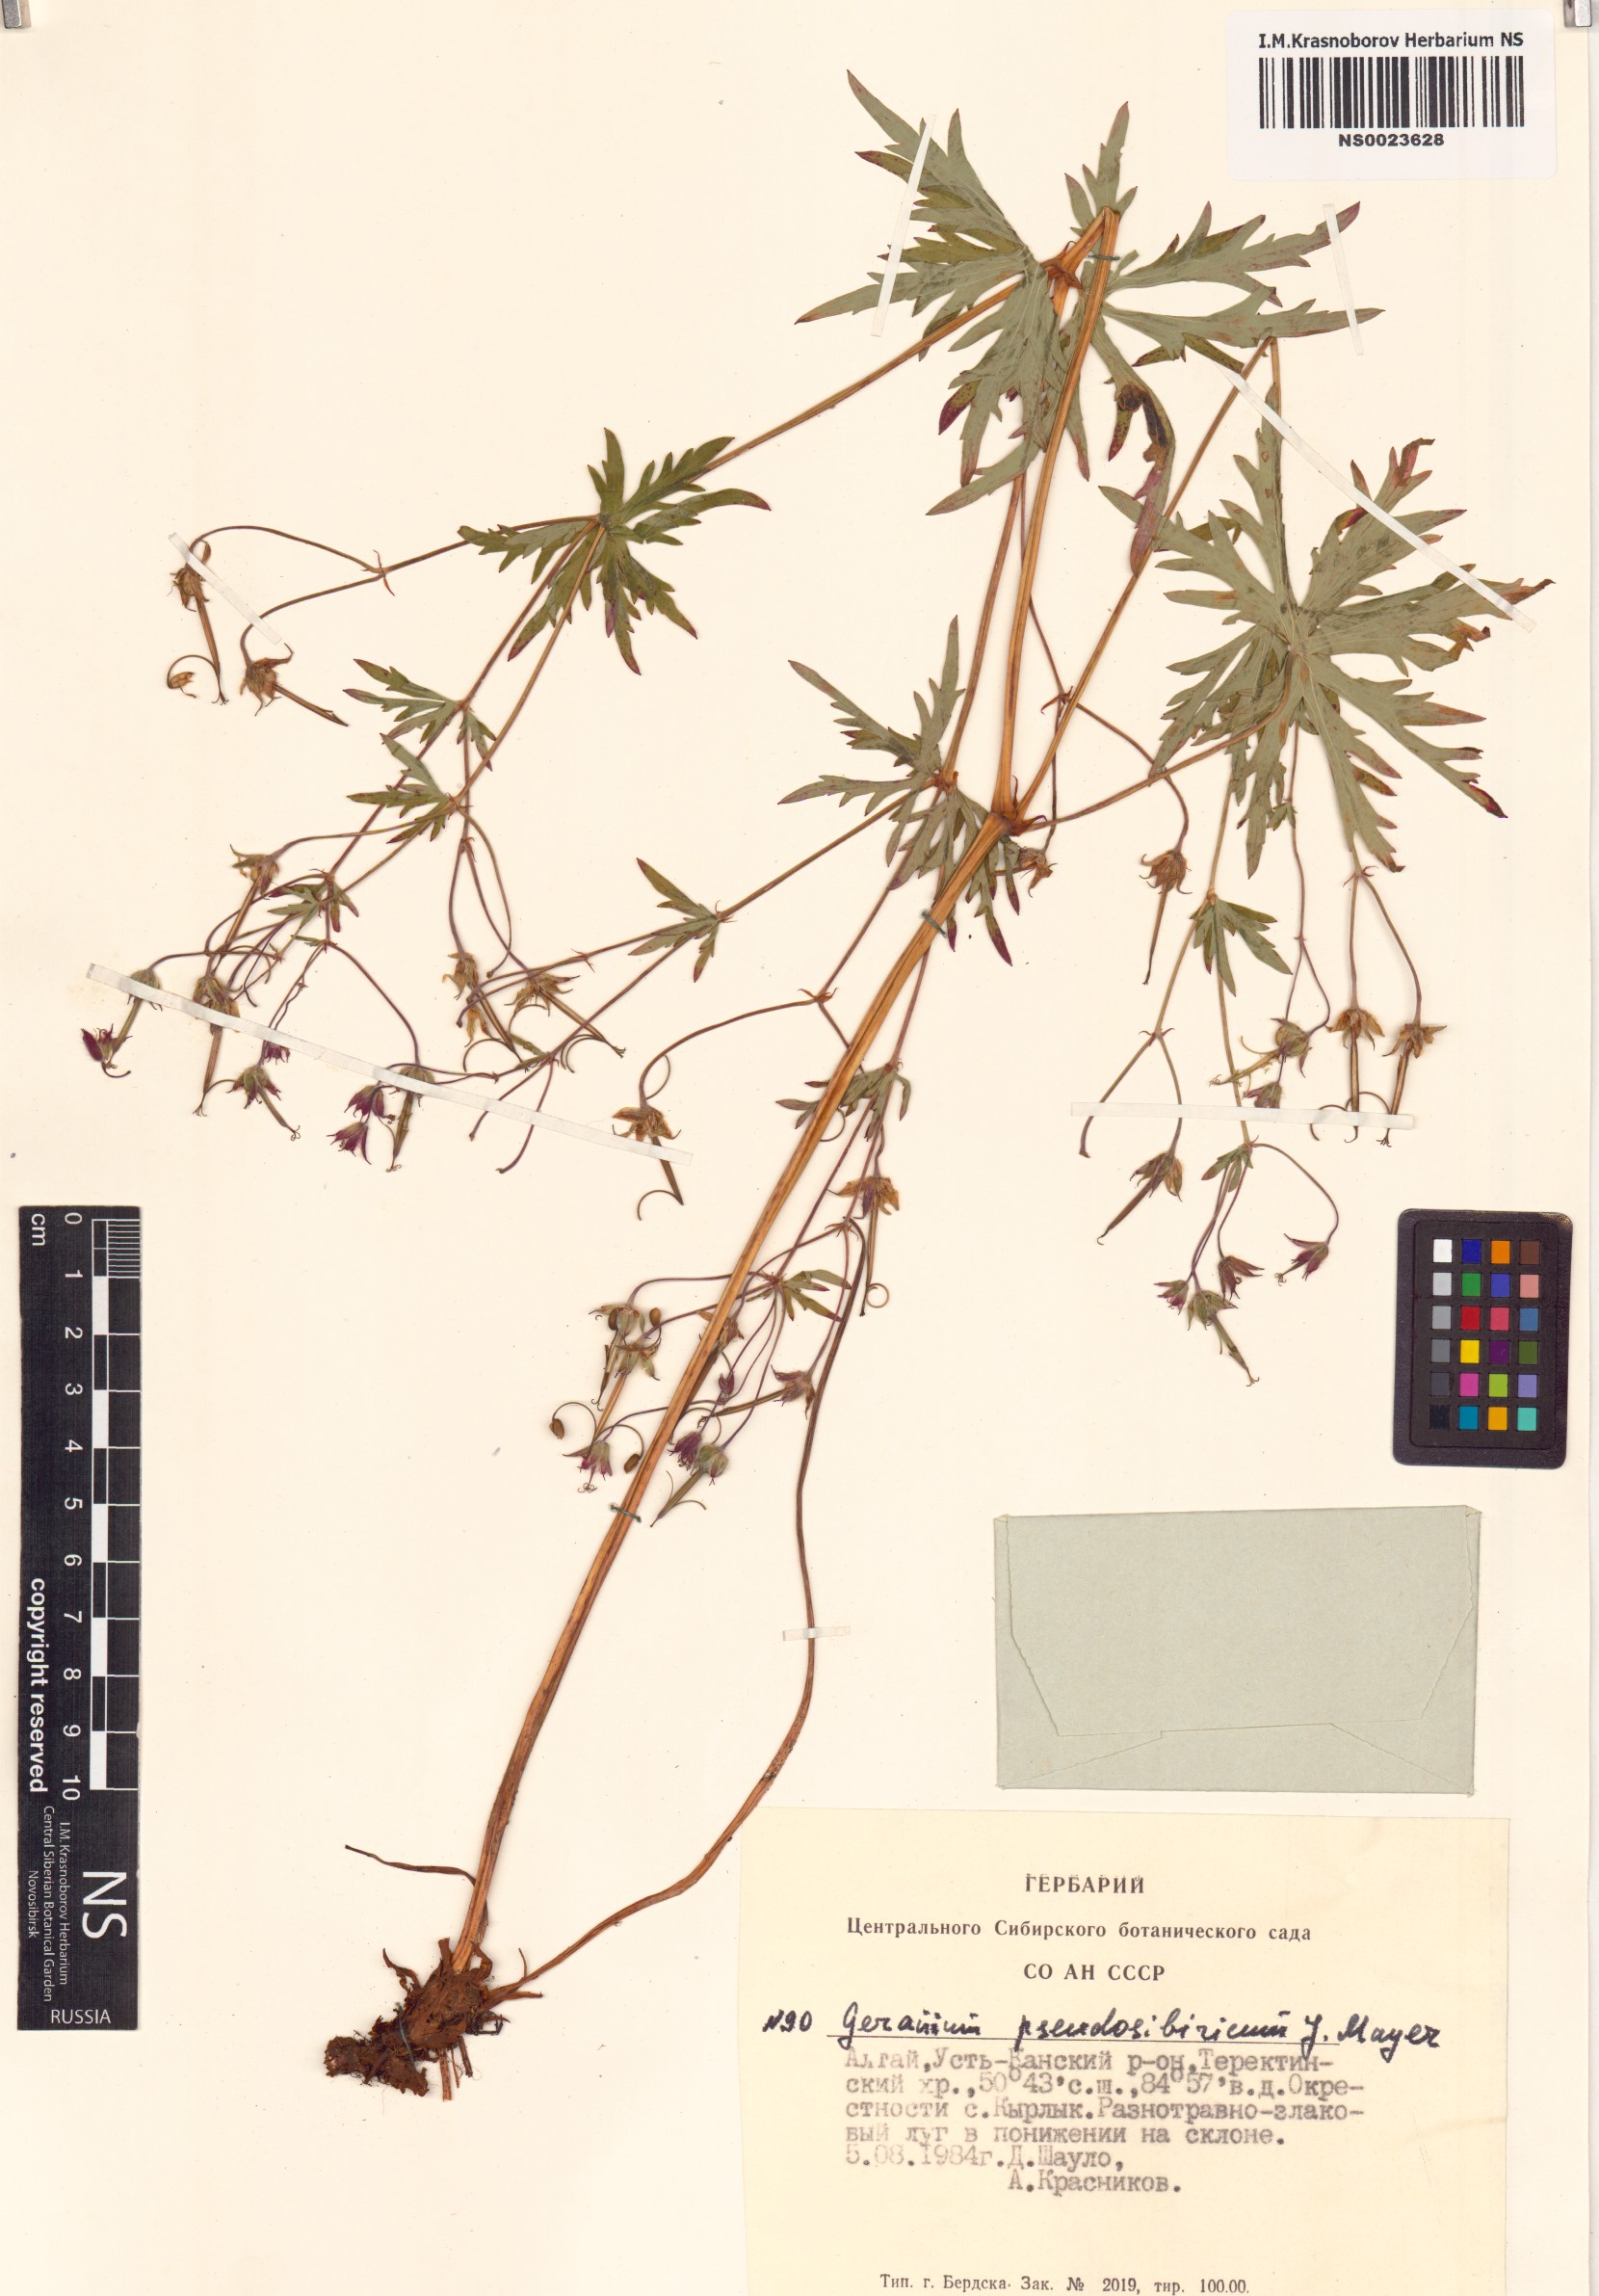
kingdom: Plantae
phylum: Tracheophyta
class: Magnoliopsida
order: Geraniales
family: Geraniaceae
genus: Geranium
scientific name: Geranium pseudosibiricum
